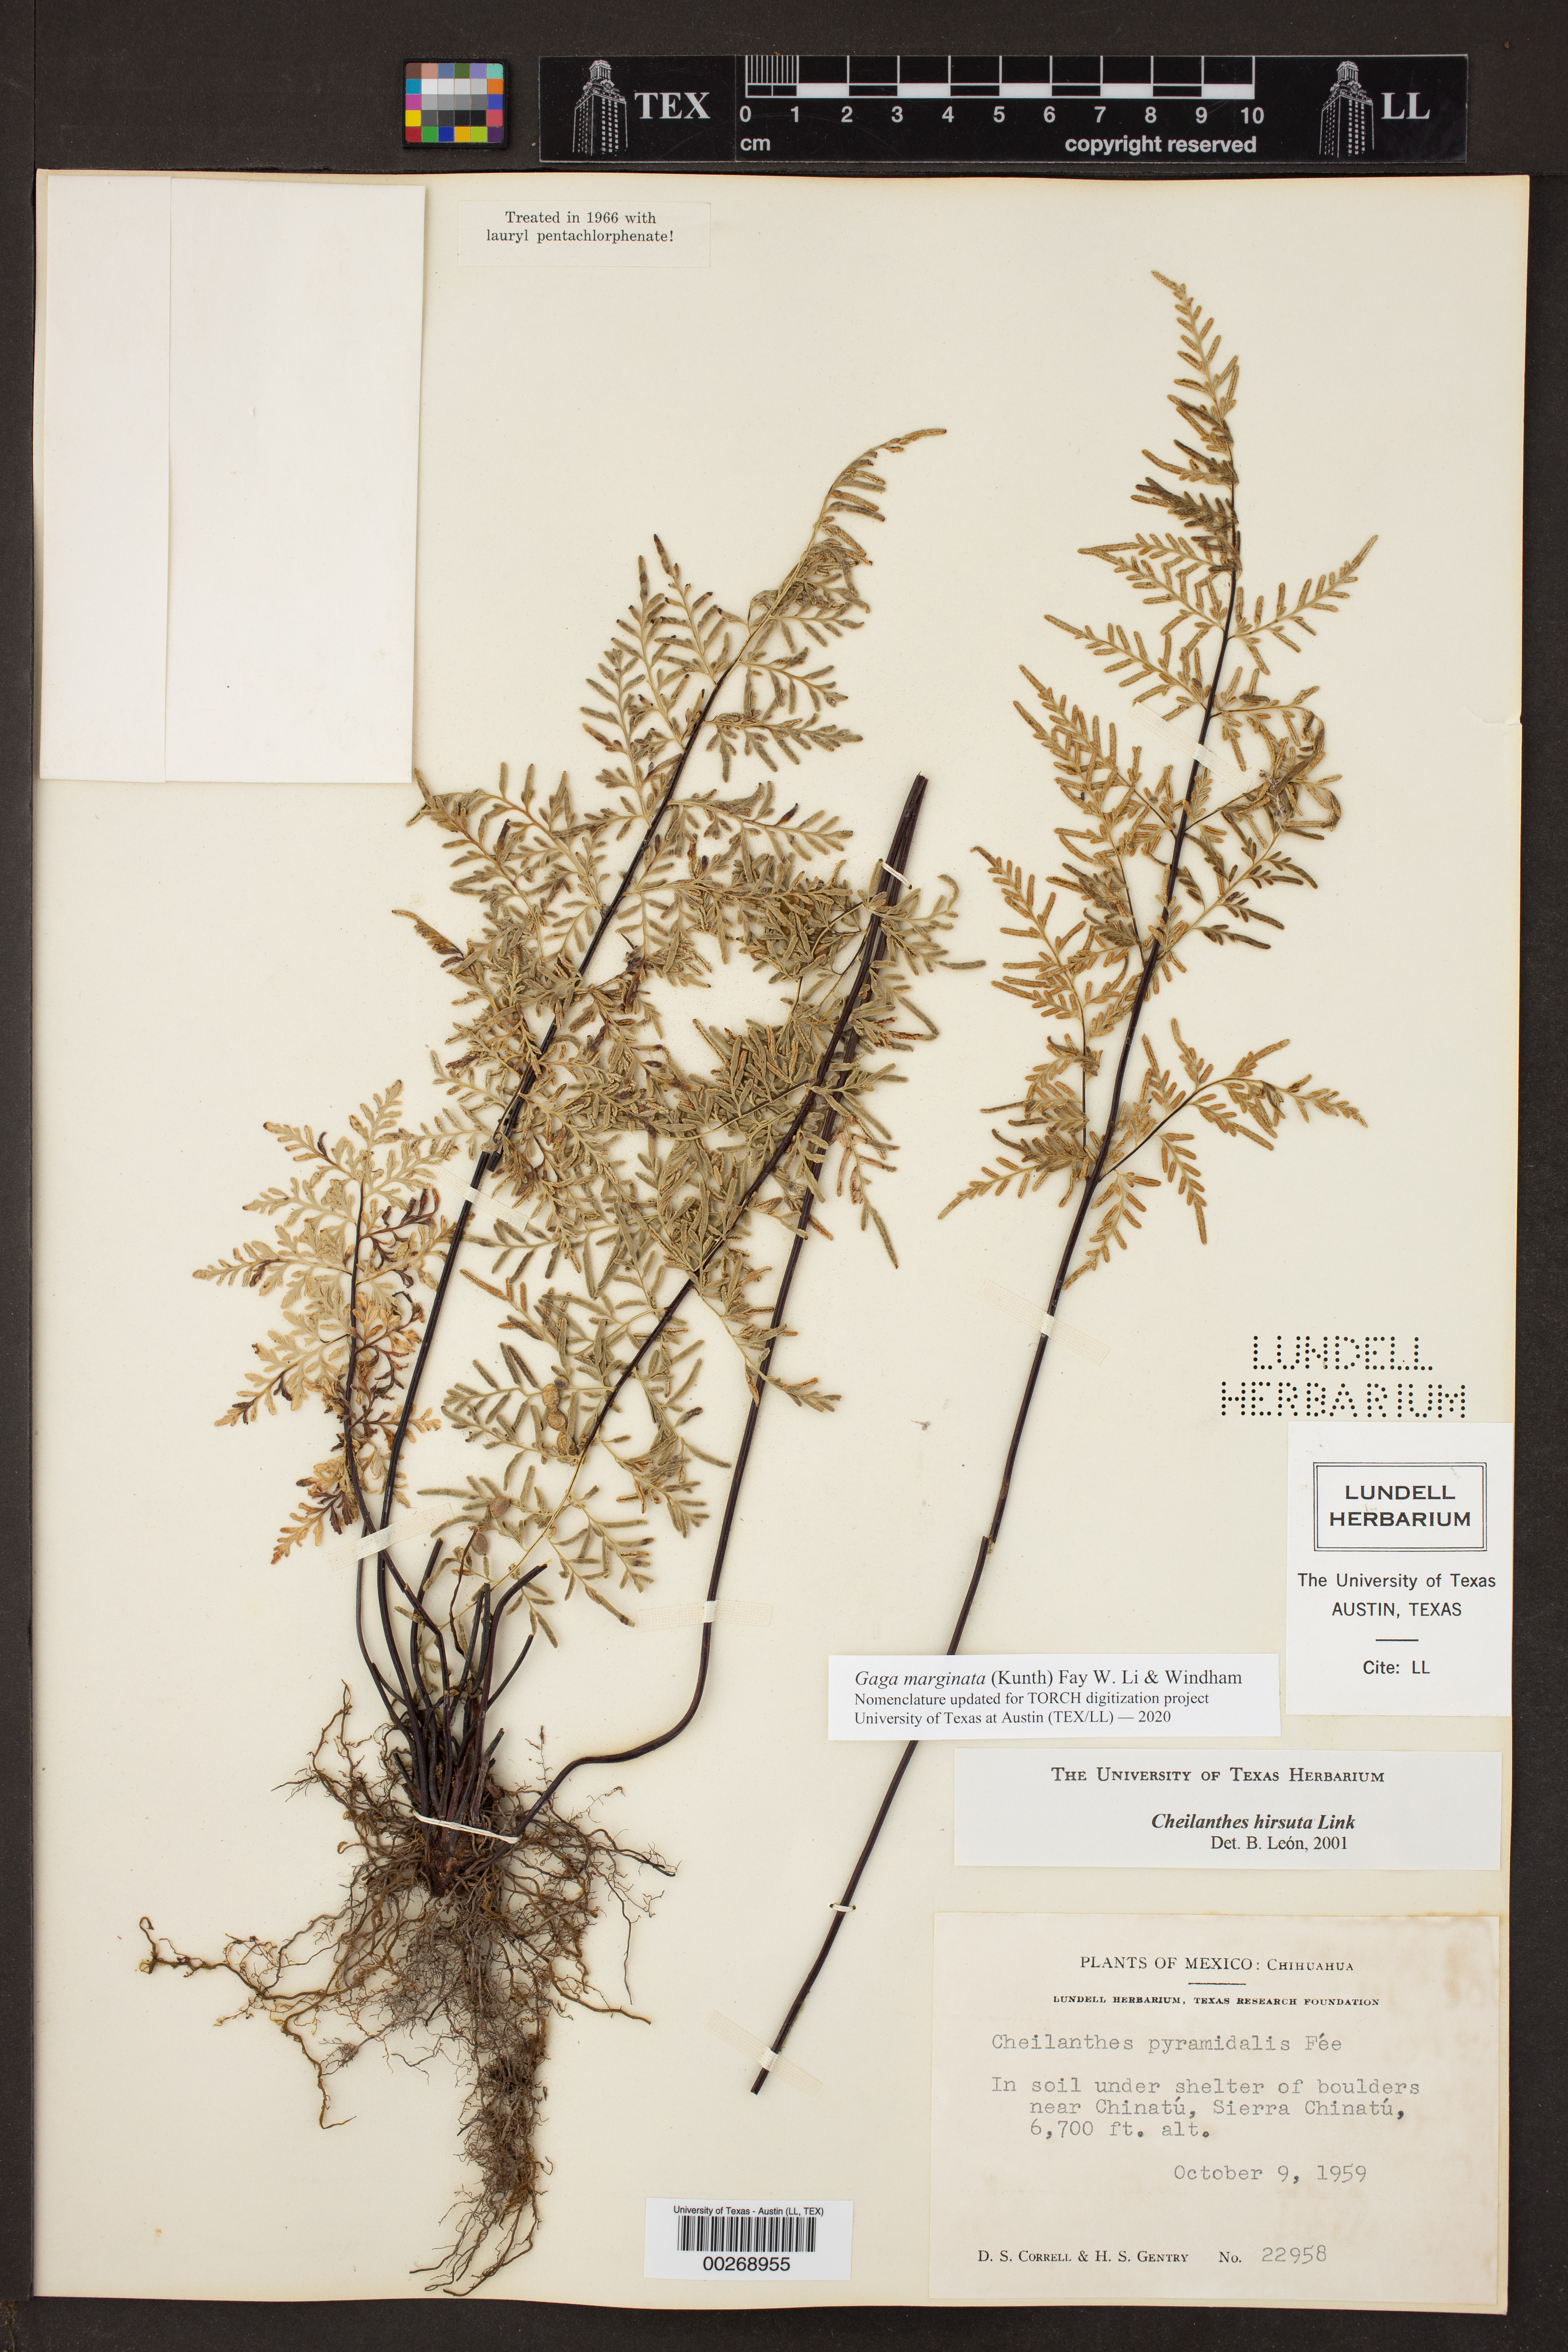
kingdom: Plantae
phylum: Tracheophyta
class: Polypodiopsida
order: Polypodiales
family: Pteridaceae
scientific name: Pteridaceae
